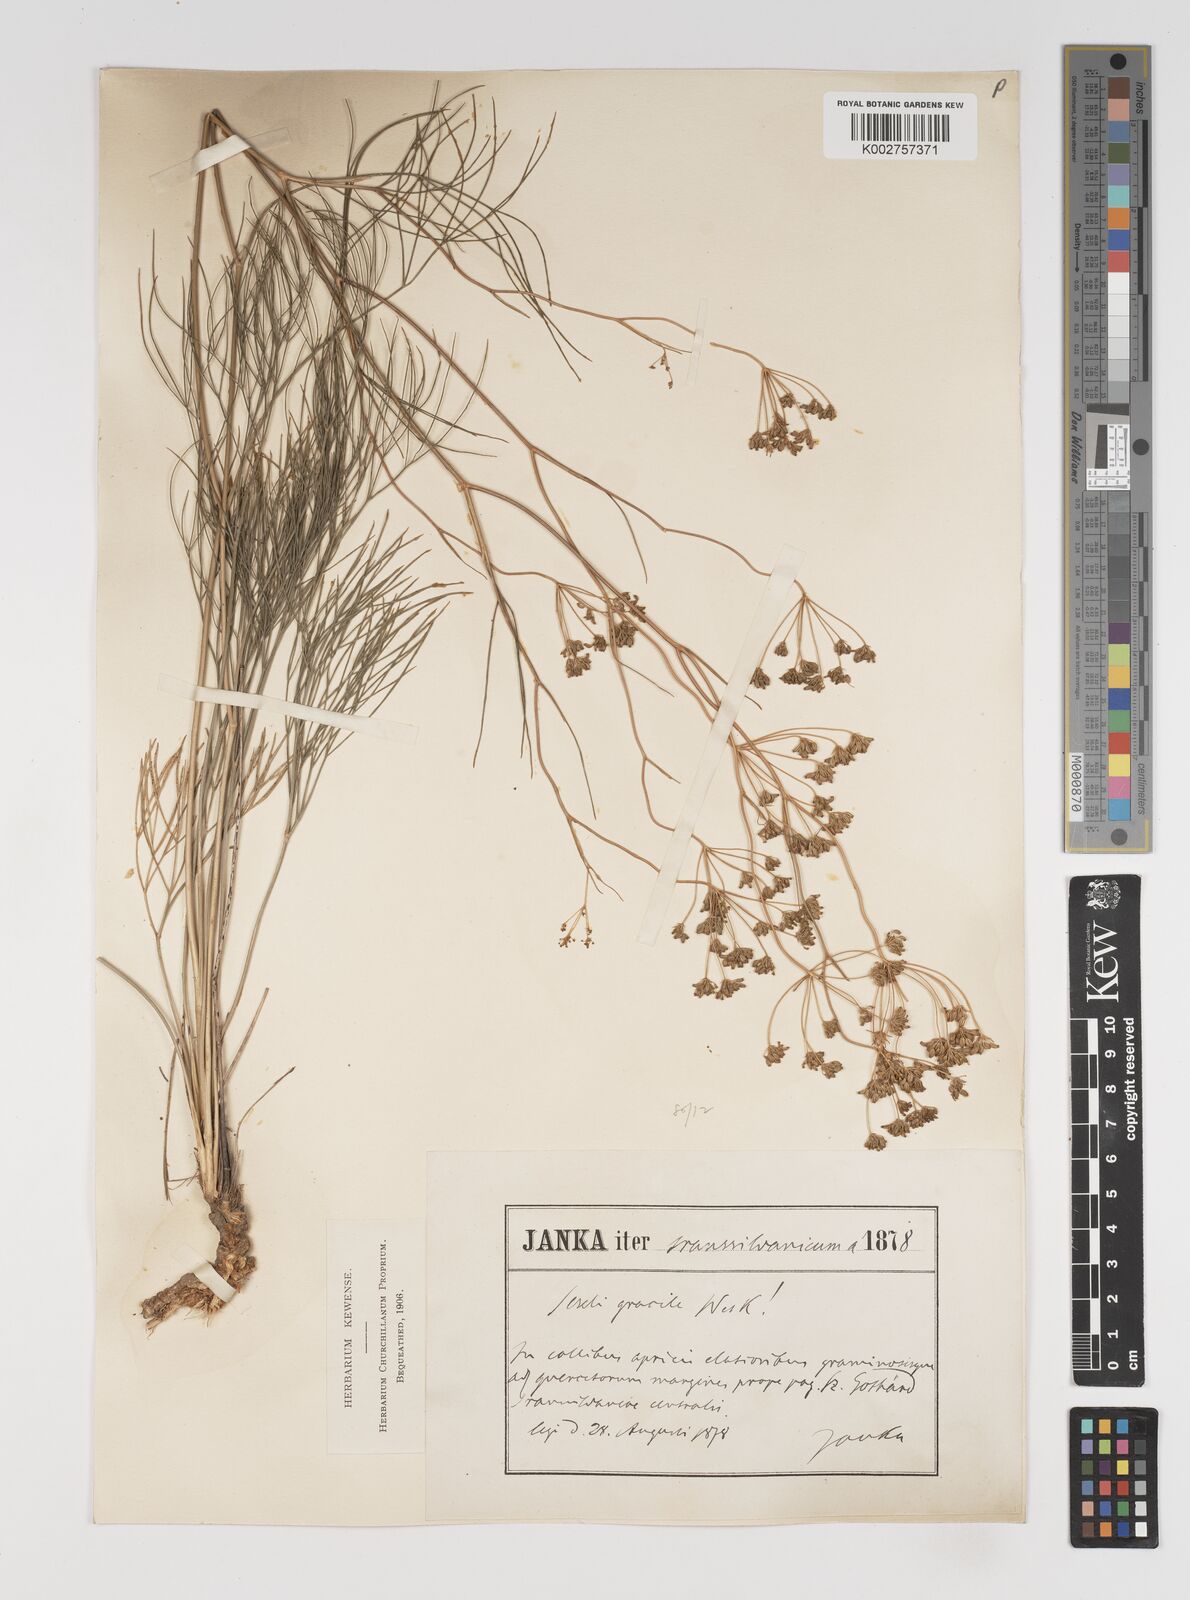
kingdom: Plantae
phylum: Tracheophyta
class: Magnoliopsida
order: Apiales
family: Apiaceae
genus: Seseli
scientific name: Seseli gracile
